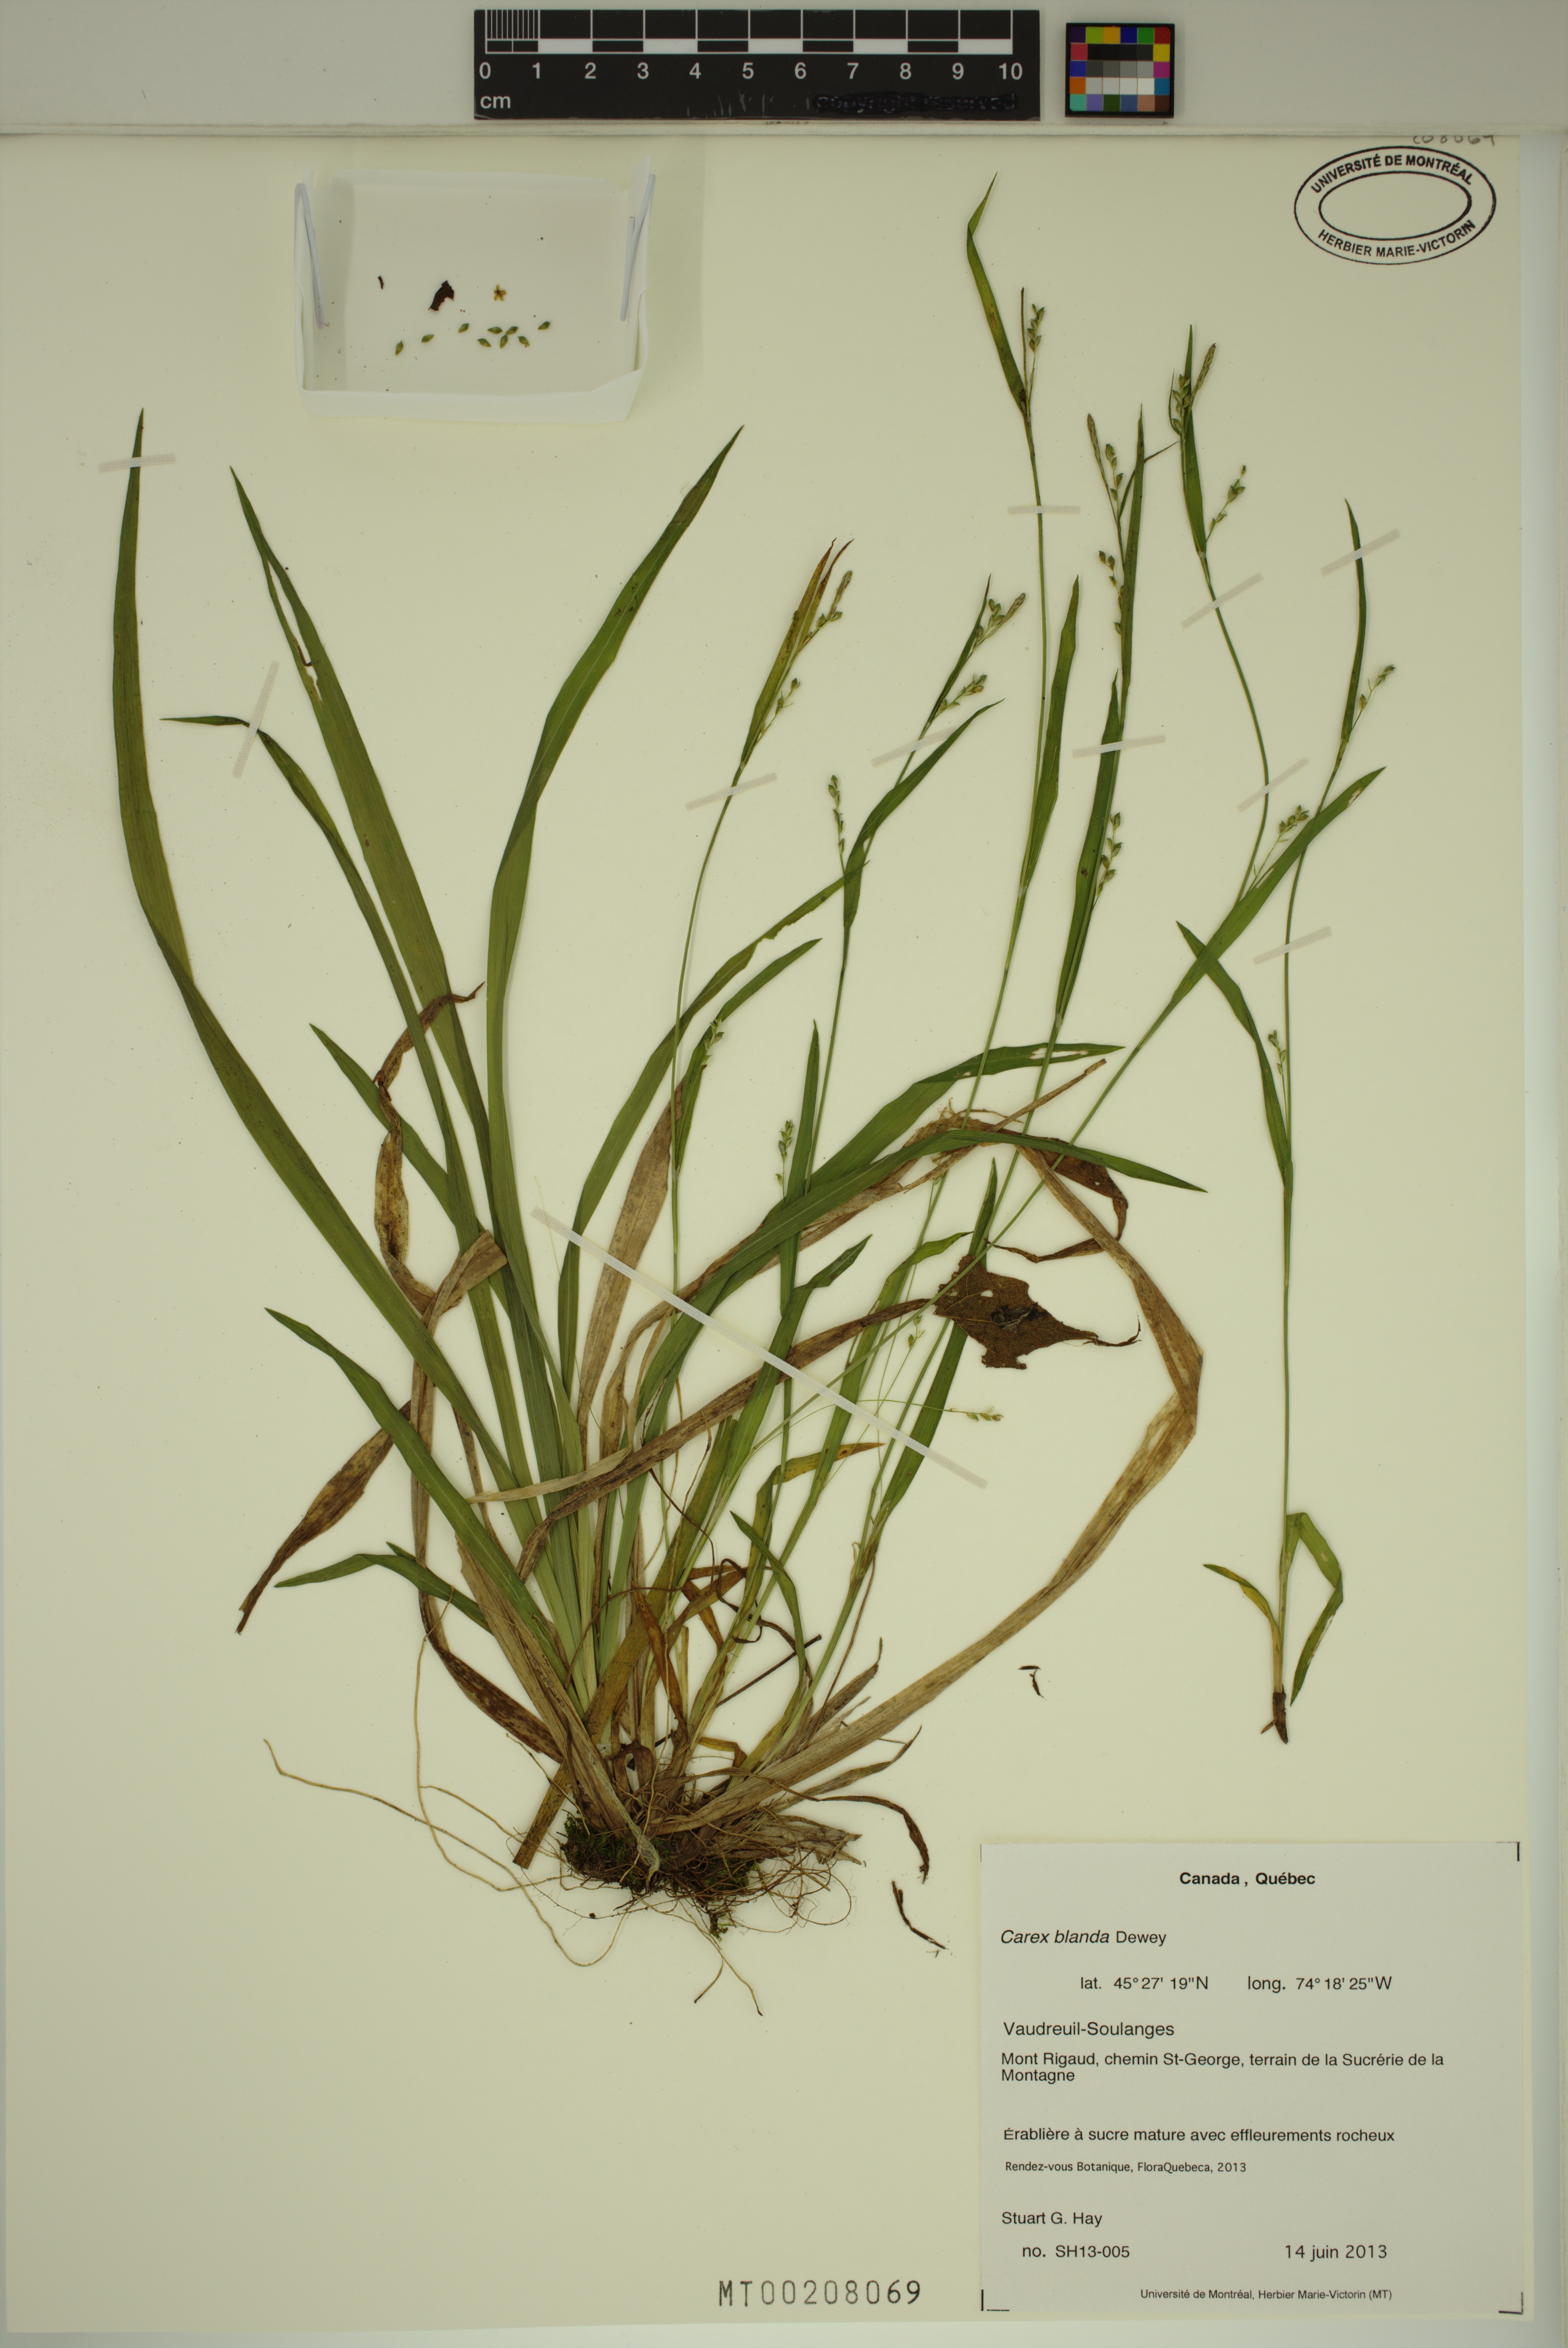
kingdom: Plantae
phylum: Tracheophyta
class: Liliopsida
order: Poales
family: Cyperaceae
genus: Carex
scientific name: Carex blanda
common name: Bland sedge
